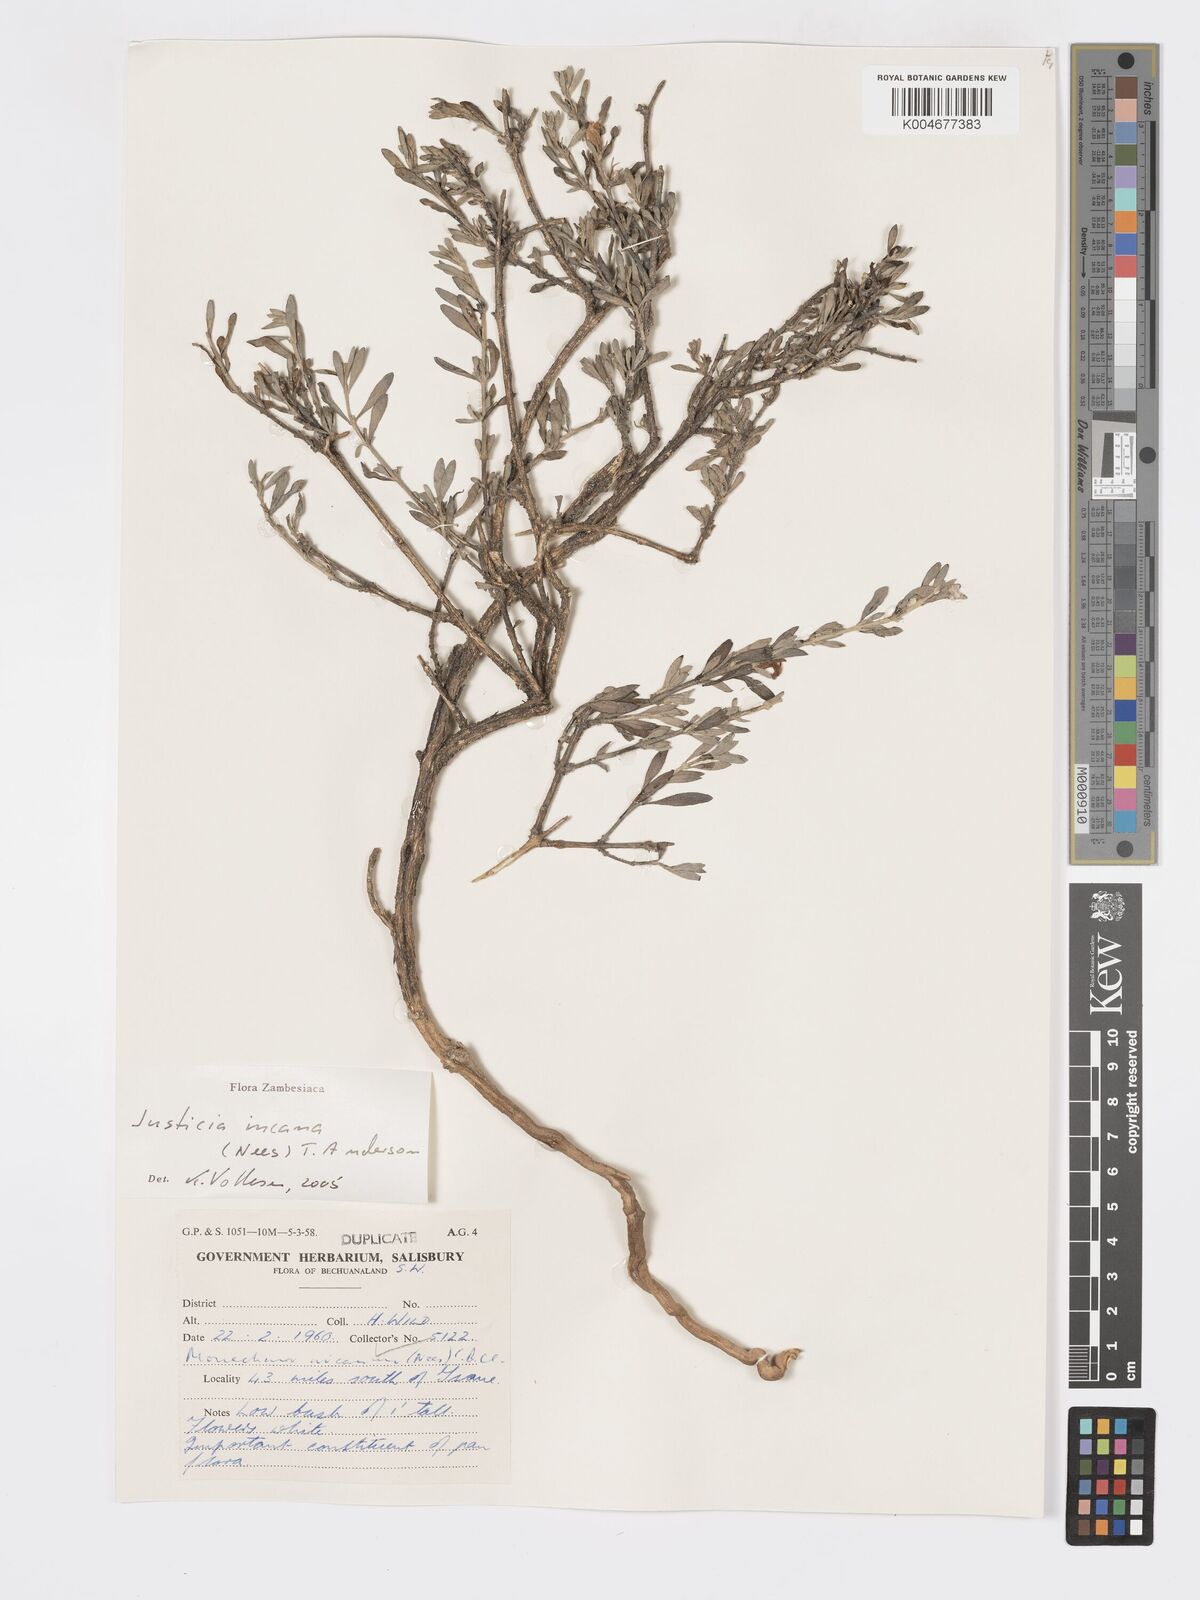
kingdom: Plantae
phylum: Tracheophyta
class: Magnoliopsida
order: Lamiales
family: Acanthaceae
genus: Pogonospermum
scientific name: Pogonospermum
